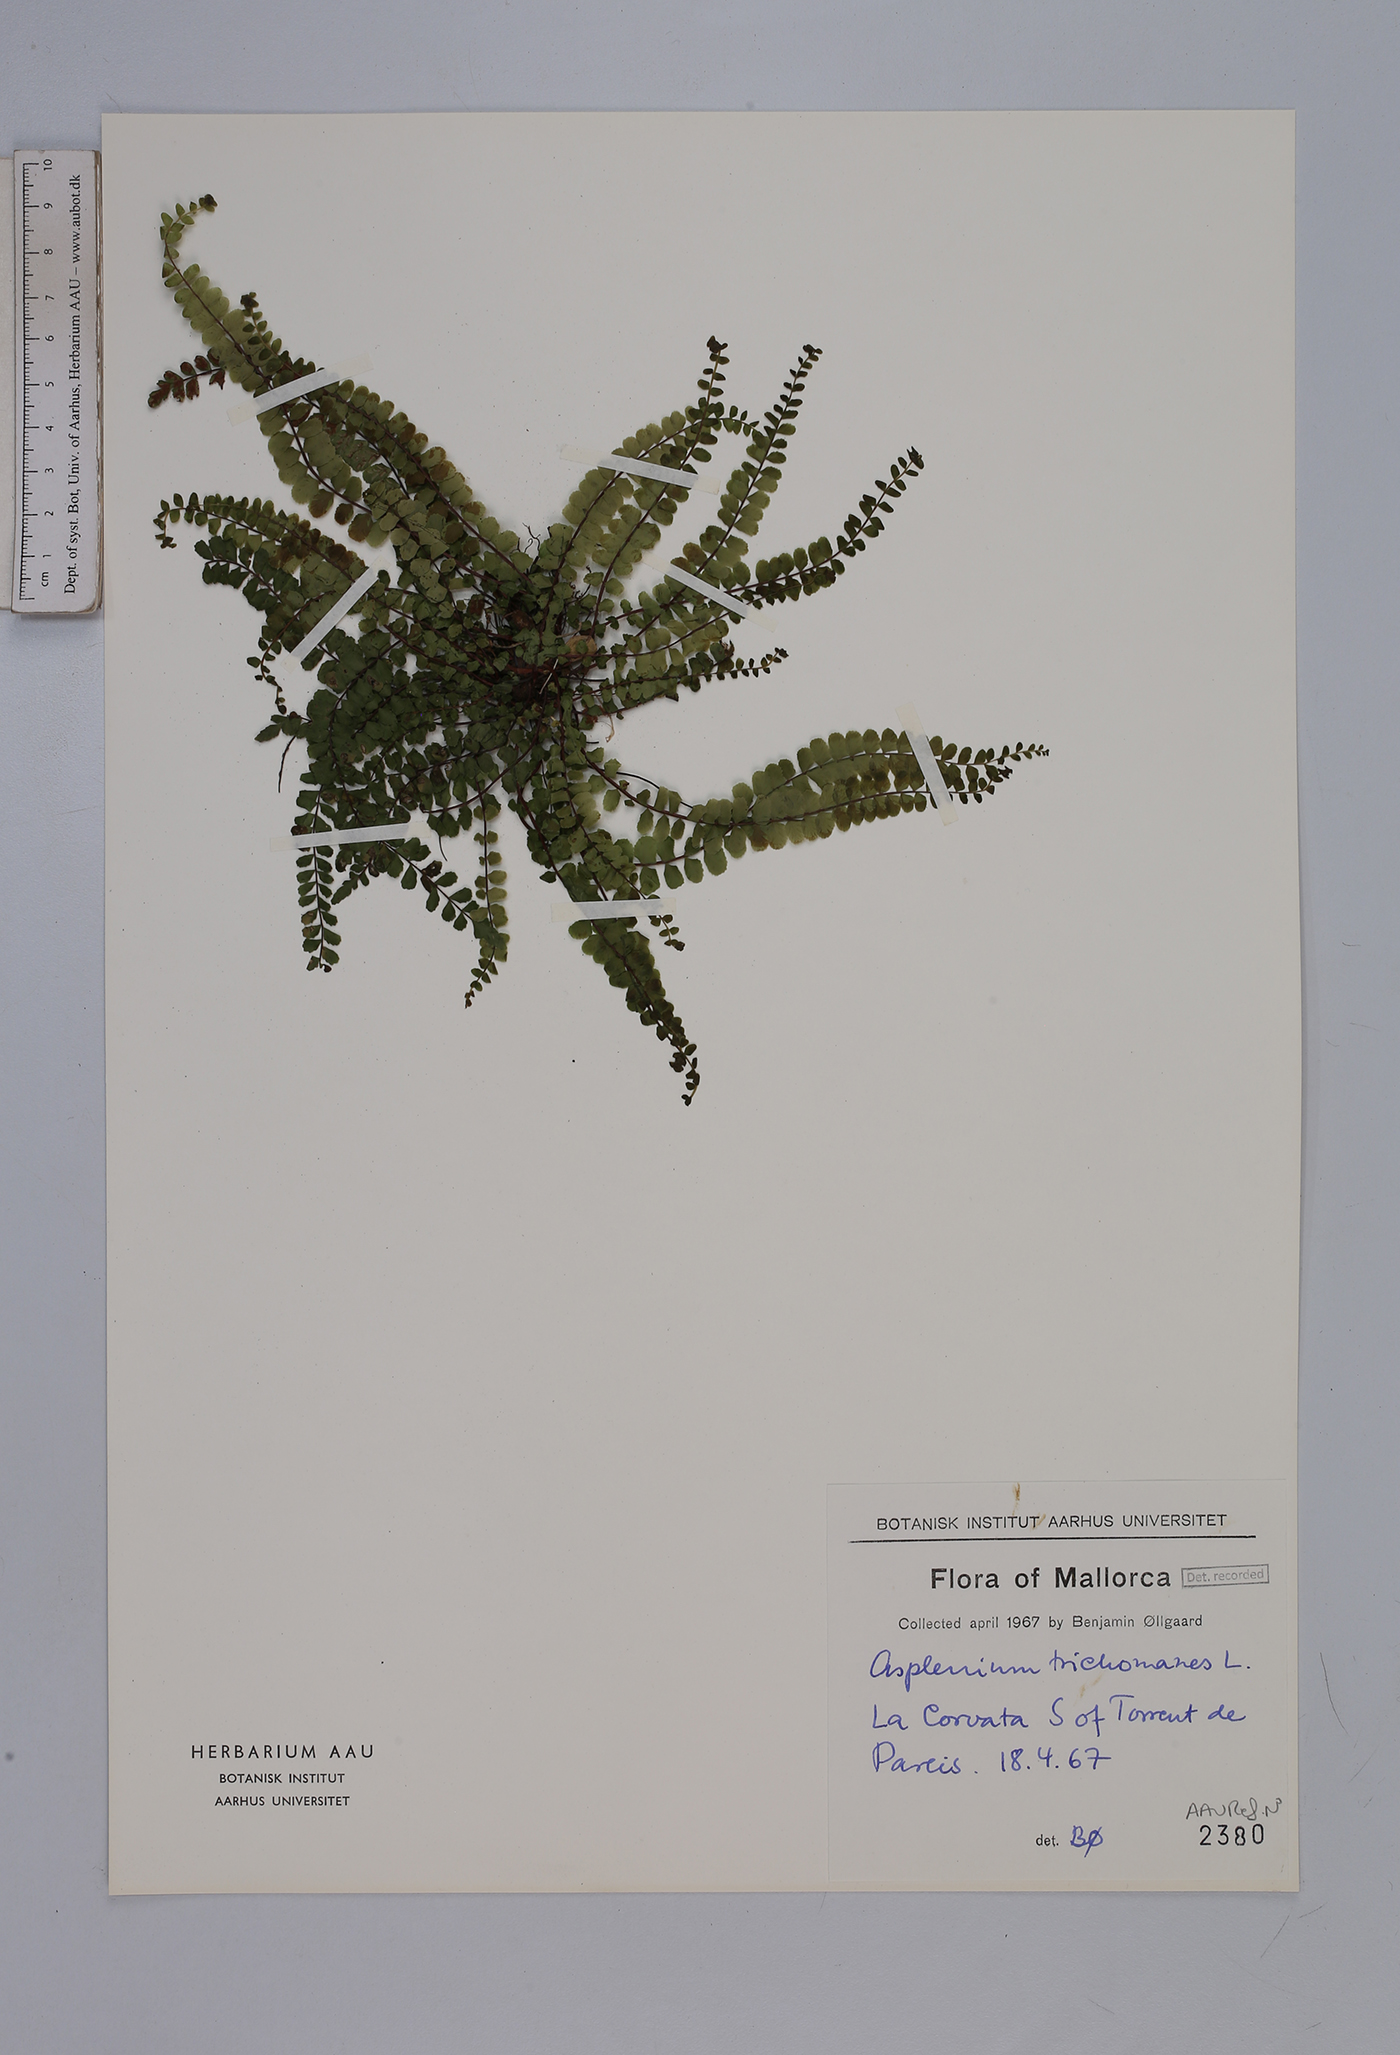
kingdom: Plantae
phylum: Tracheophyta
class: Polypodiopsida
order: Polypodiales
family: Aspleniaceae
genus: Asplenium
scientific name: Asplenium trichomanes
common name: Maidenhair spleenwort
